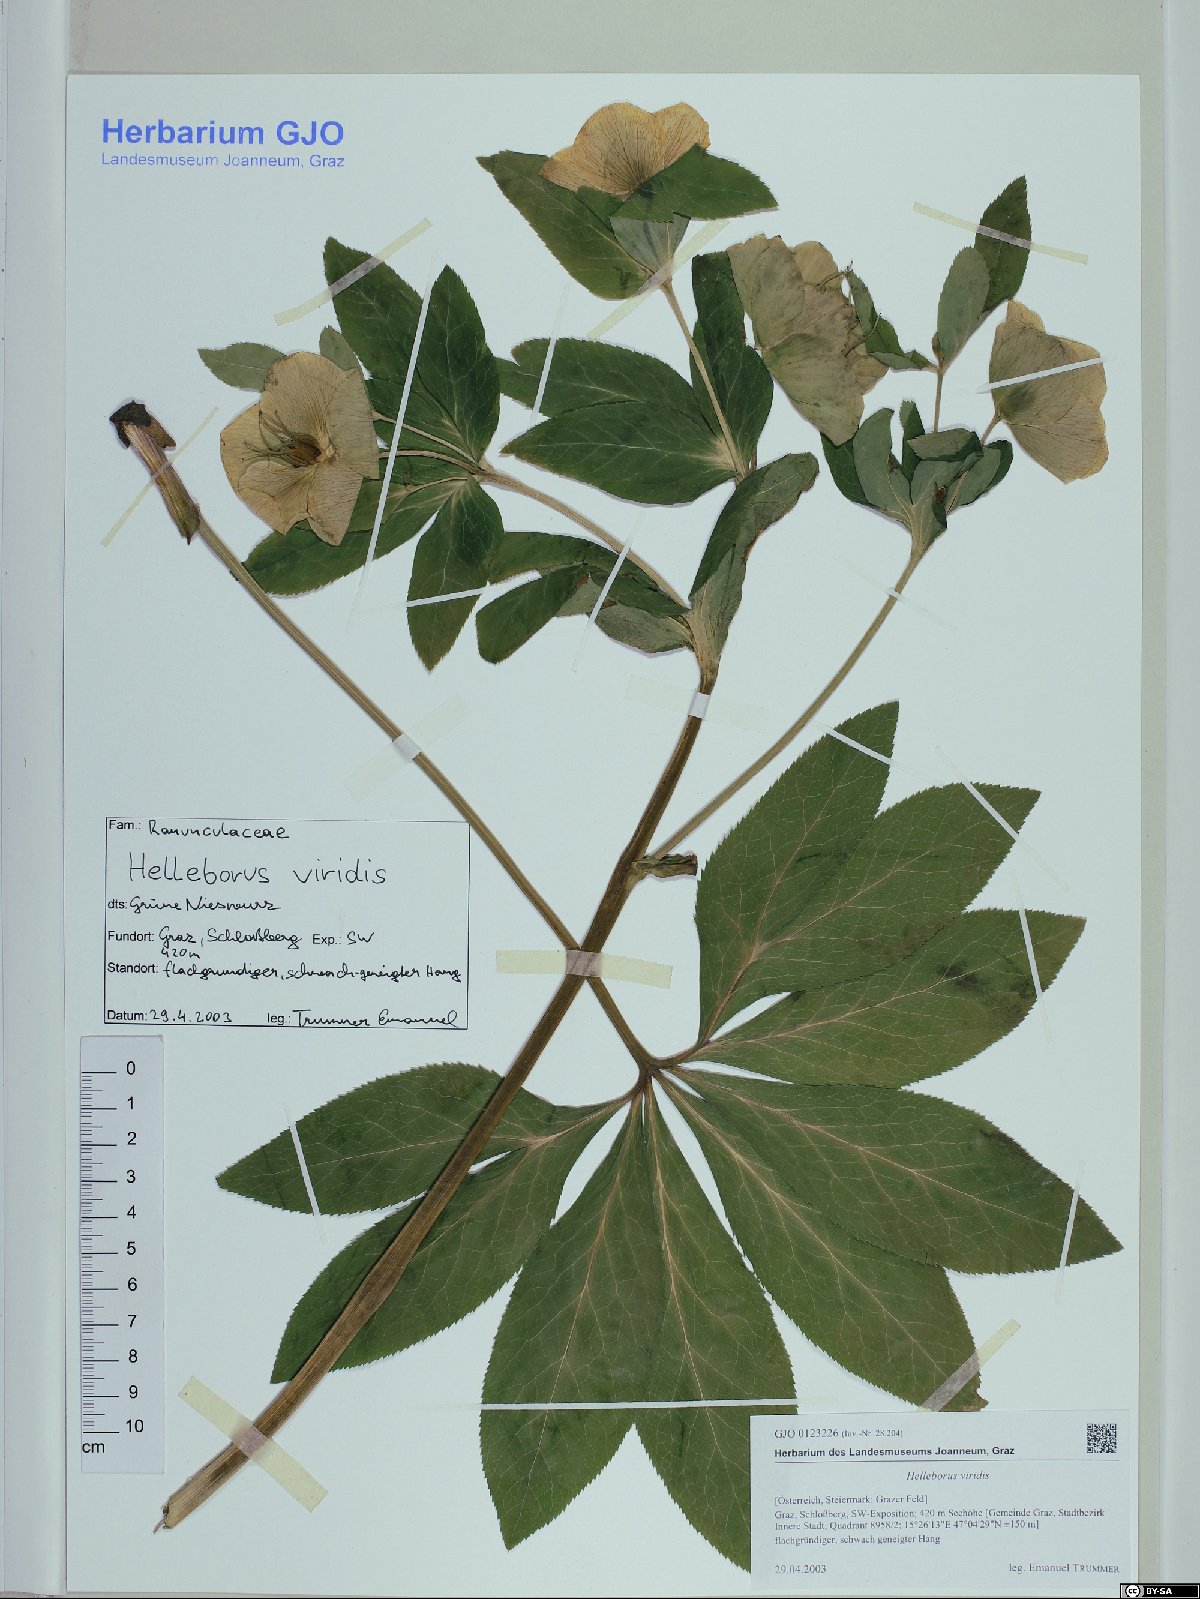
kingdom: Plantae
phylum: Tracheophyta
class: Magnoliopsida
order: Ranunculales
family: Ranunculaceae
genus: Helleborus
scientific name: Helleborus viridis
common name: Green hellebore
